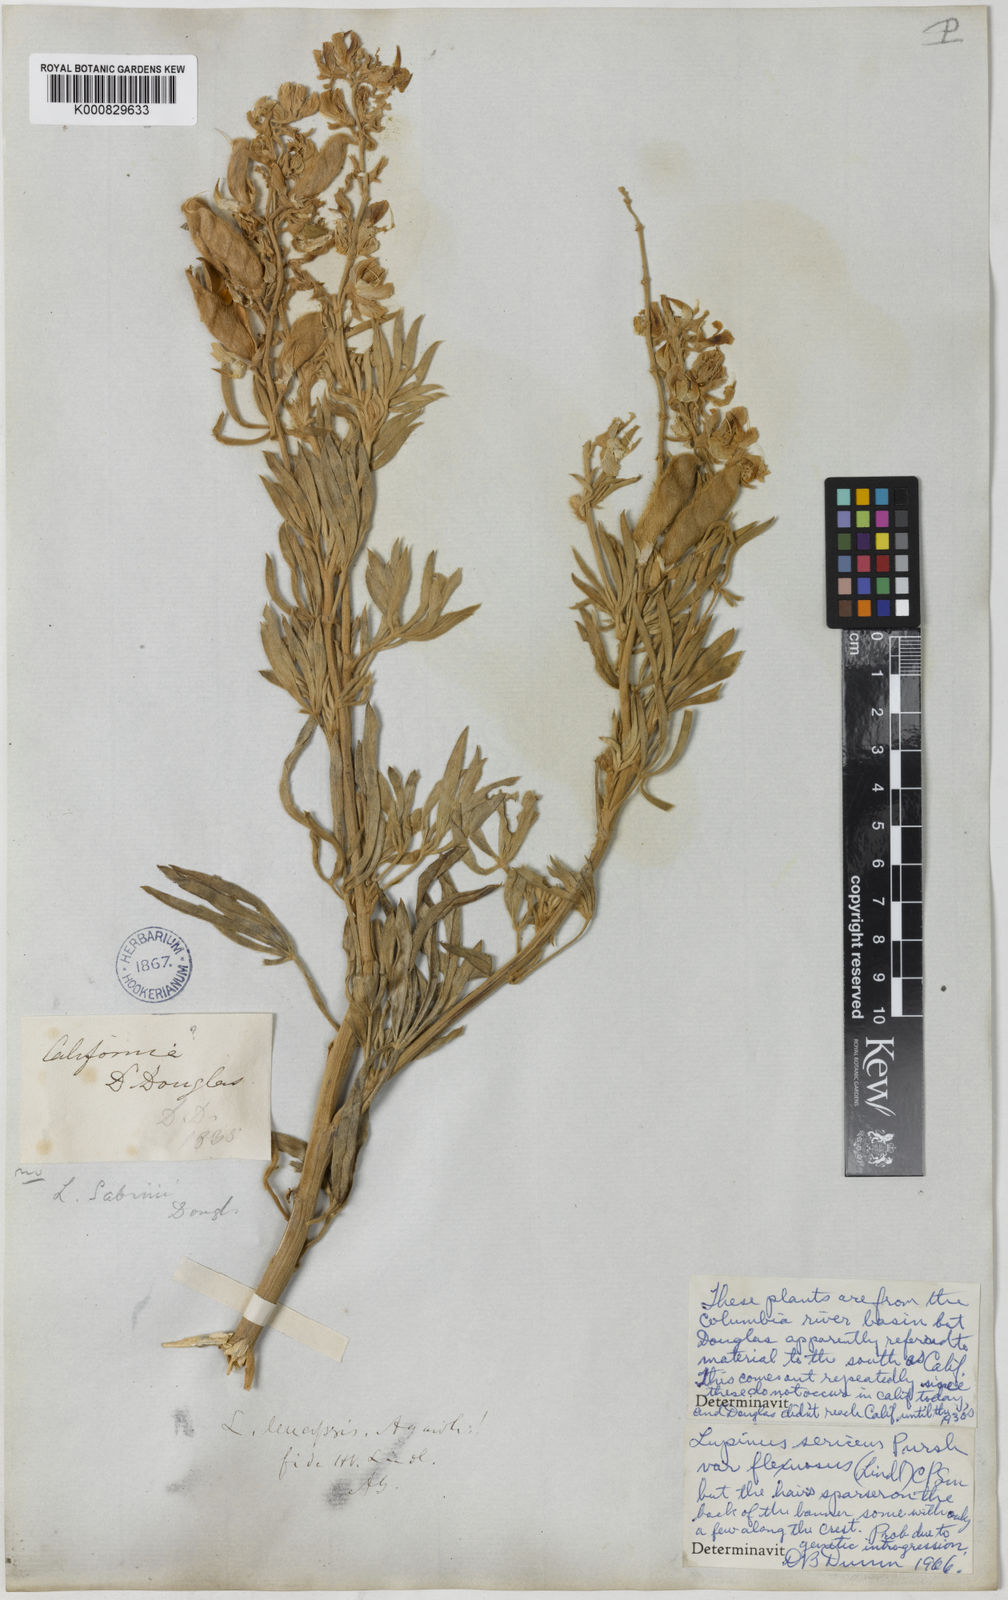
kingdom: Plantae
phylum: Tracheophyta
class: Magnoliopsida
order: Fabales
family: Fabaceae
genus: Lupinus
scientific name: Lupinus sabinianus
